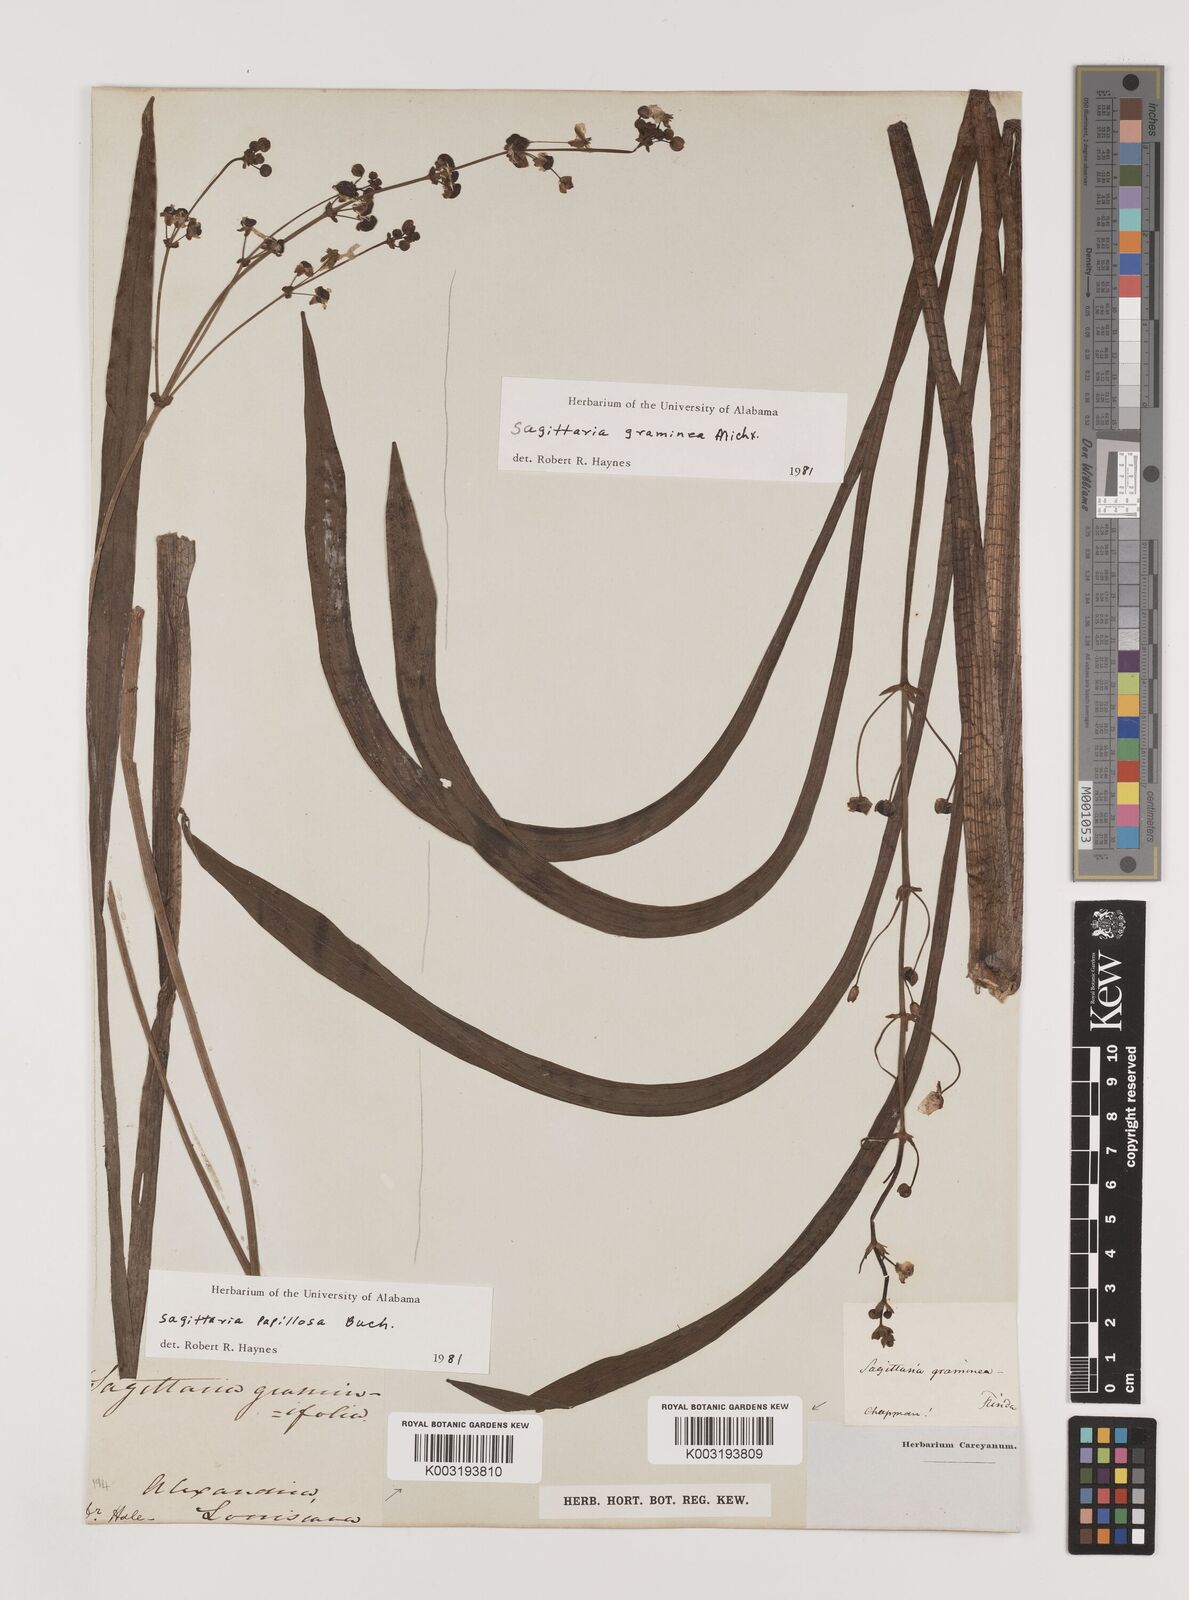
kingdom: Plantae
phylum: Tracheophyta
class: Liliopsida
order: Alismatales
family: Alismataceae
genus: Sagittaria
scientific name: Sagittaria graminea
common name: Grass-leaved arrowhead
